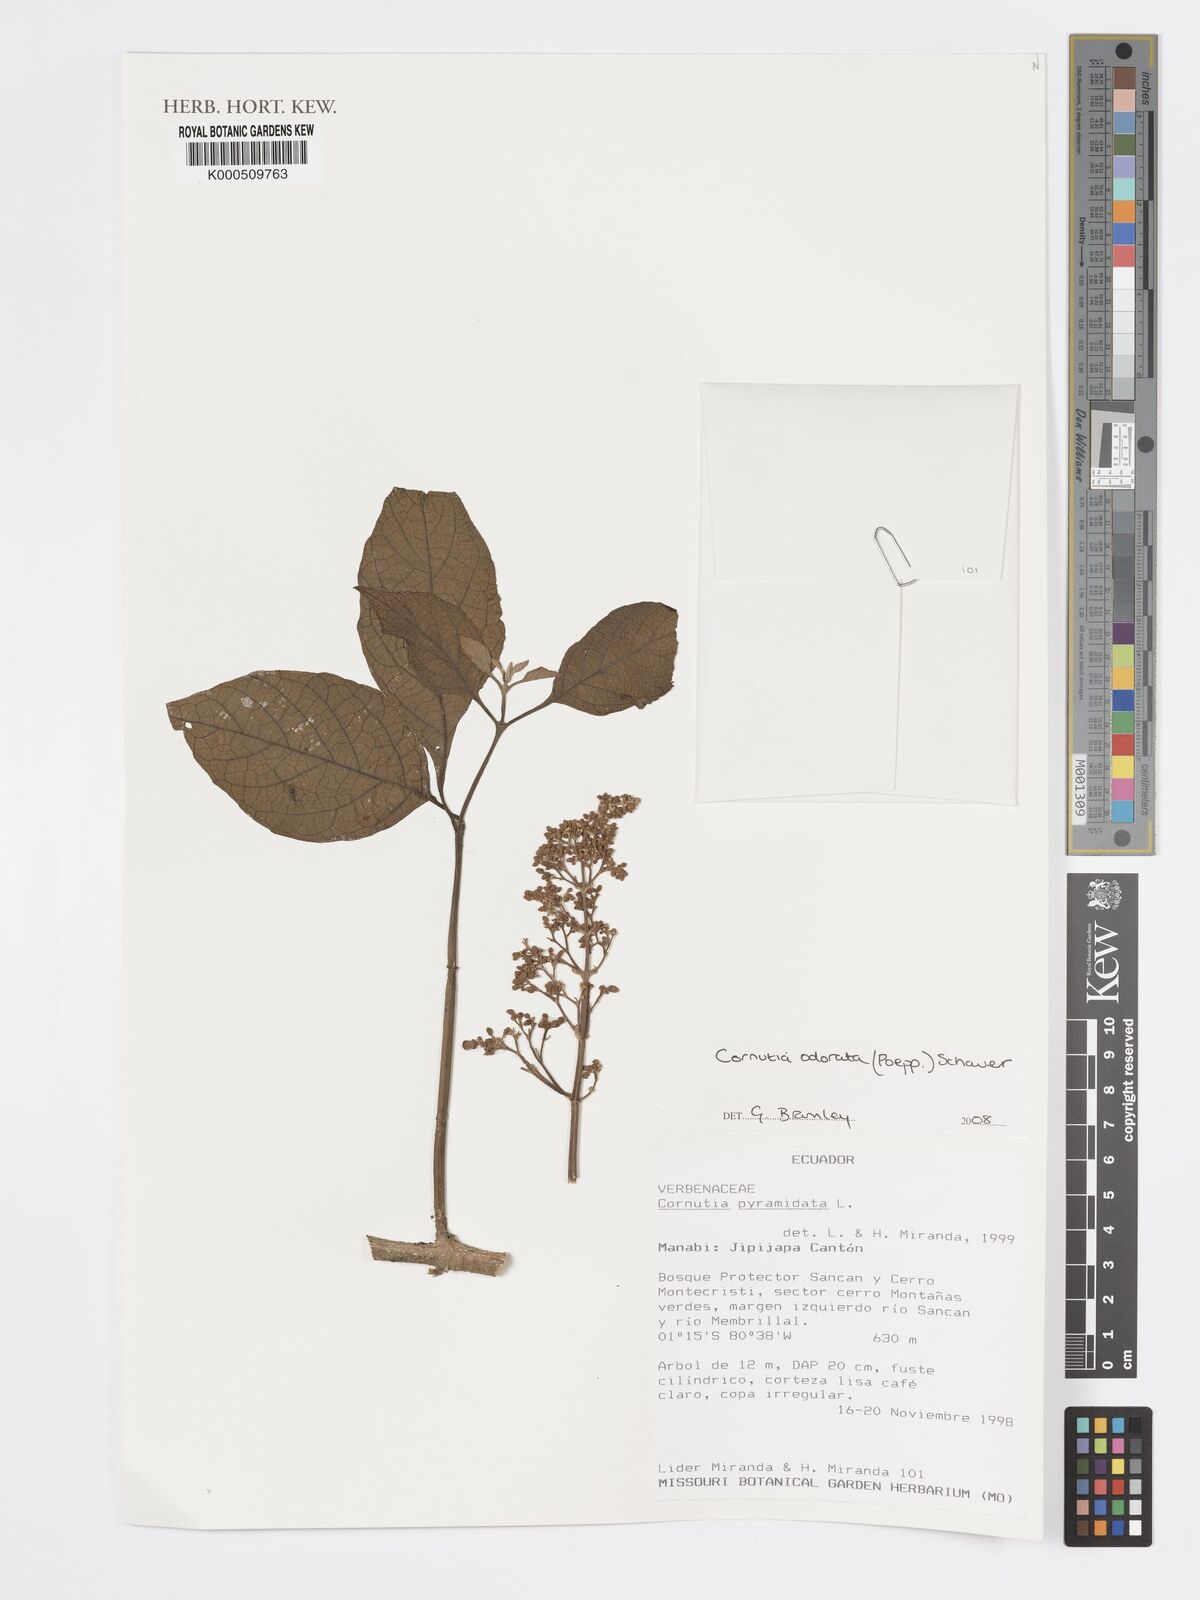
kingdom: Plantae
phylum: Tracheophyta
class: Magnoliopsida
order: Lamiales
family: Lamiaceae
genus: Cornutia
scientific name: Cornutia pyramidata
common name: Azulejo
